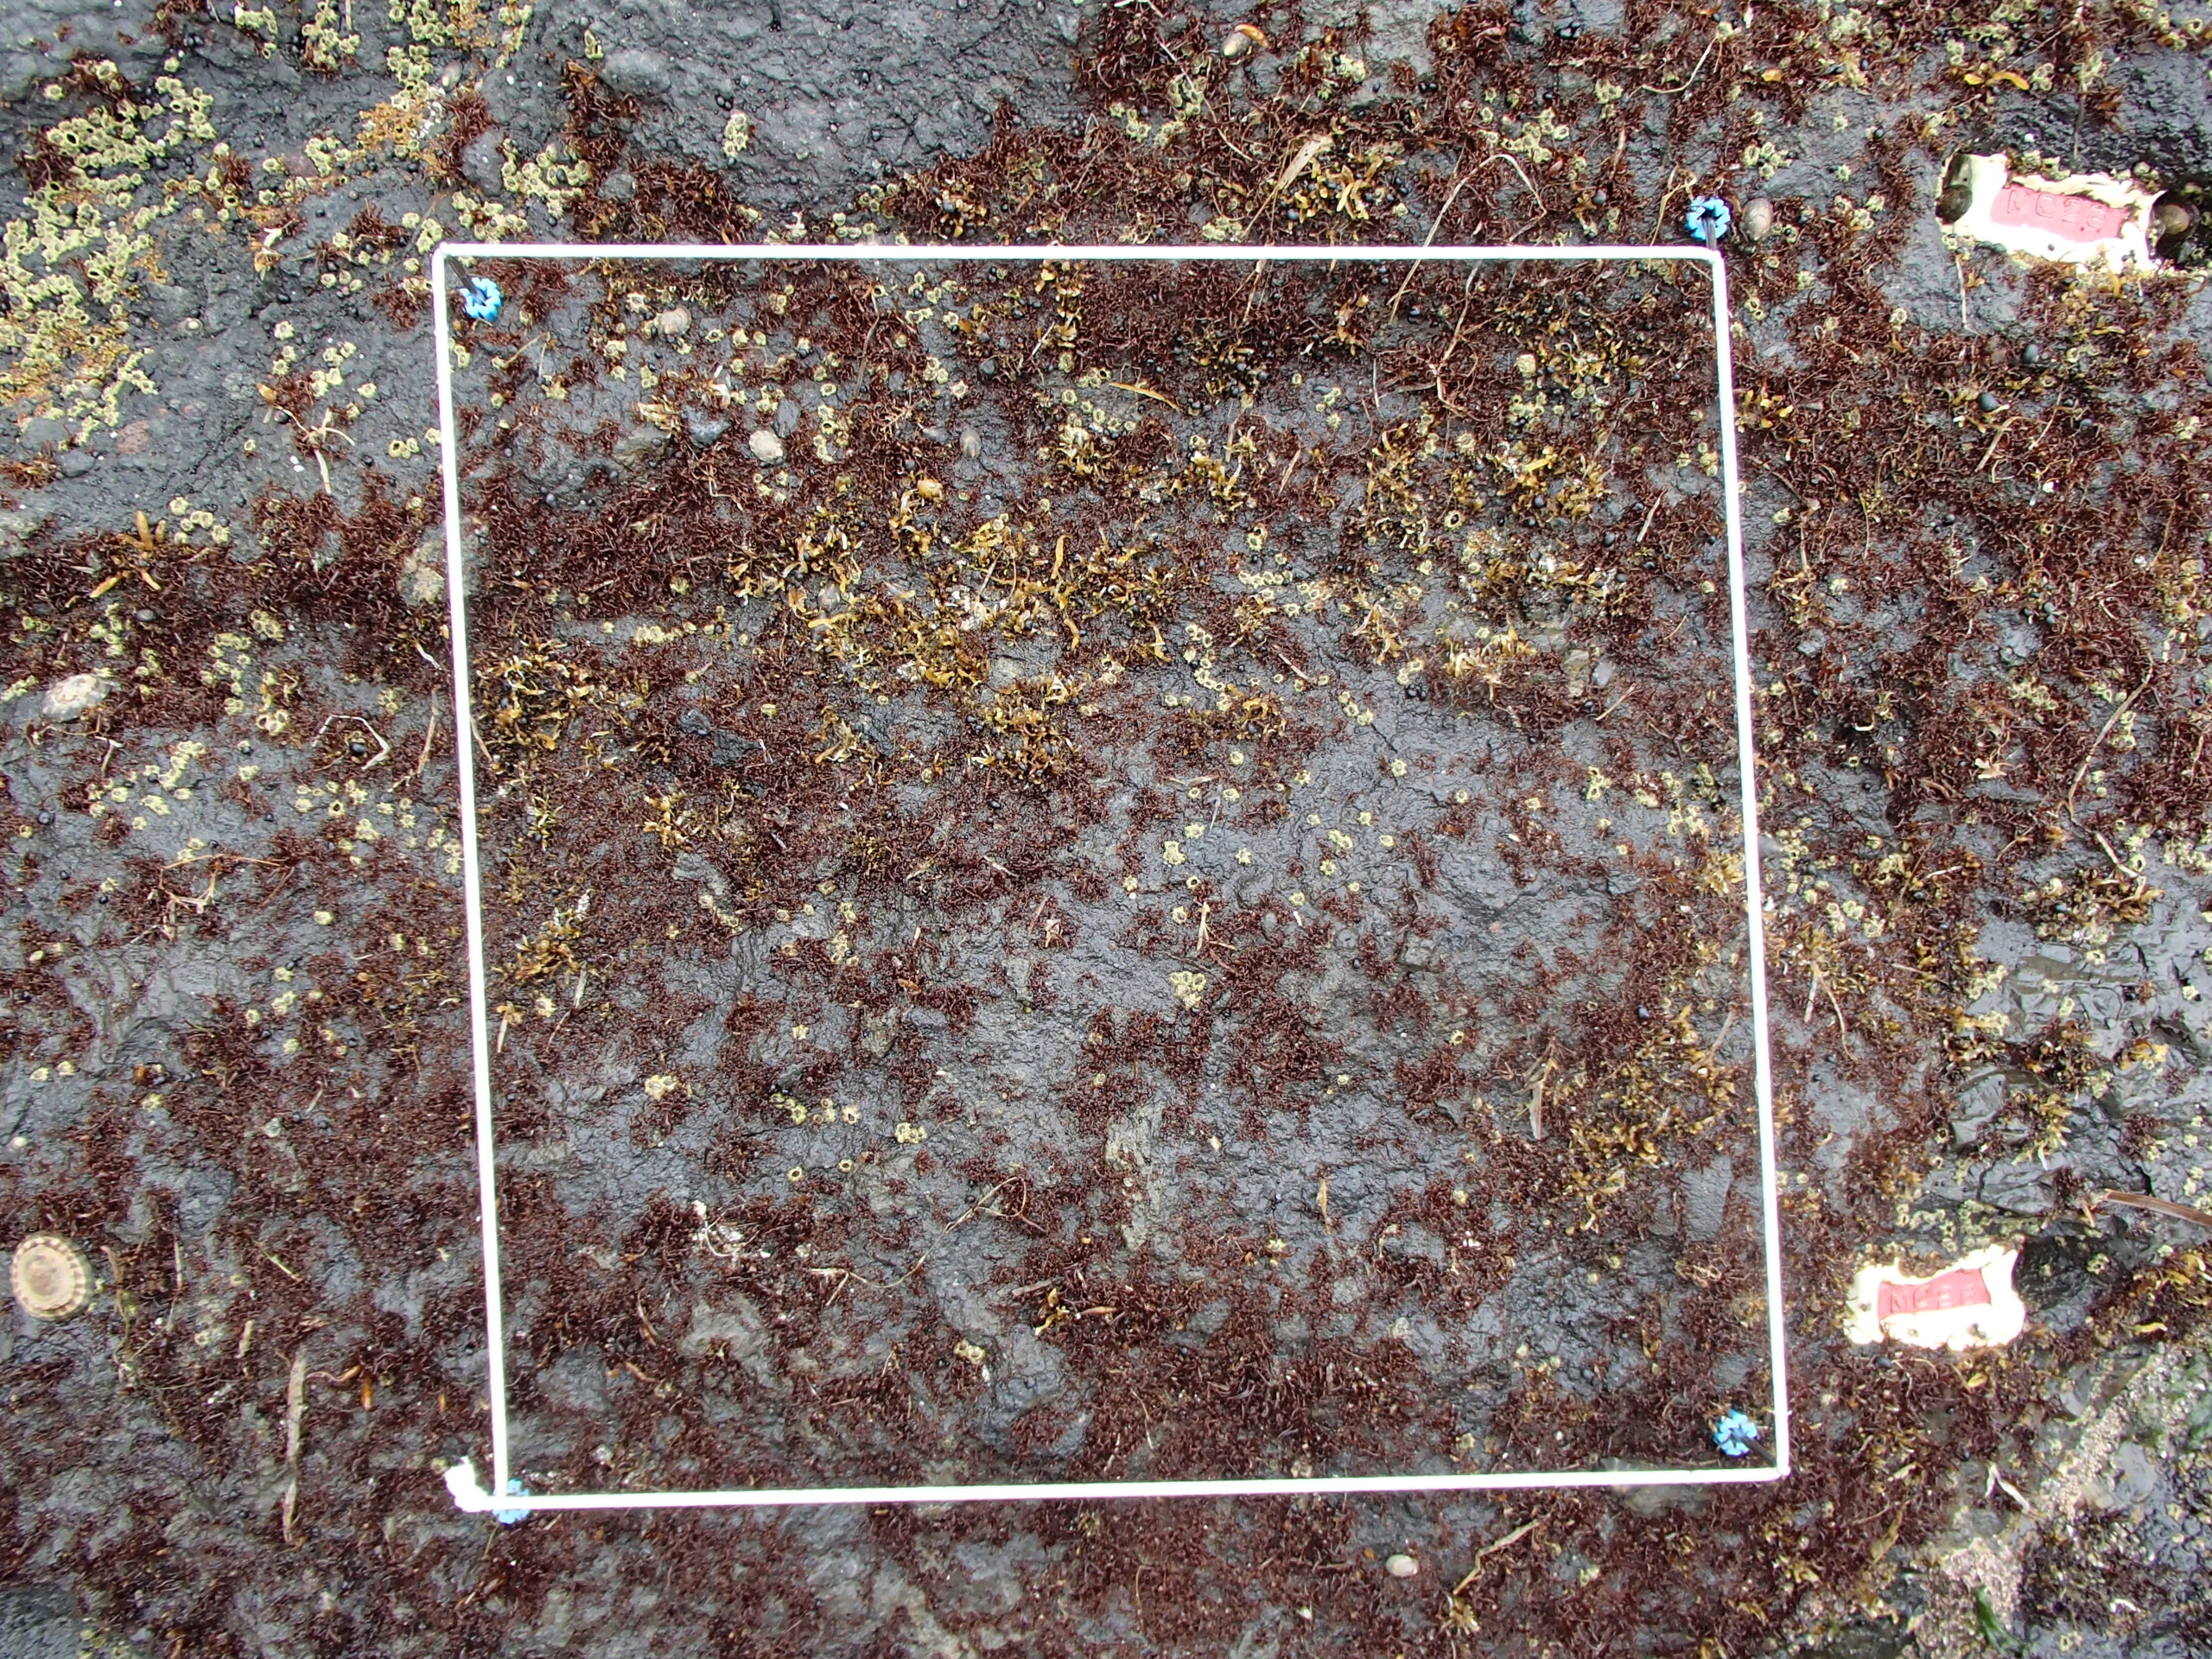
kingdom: Animalia
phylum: Arthropoda
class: Maxillopoda
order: Sessilia
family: Chthamalidae
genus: Chthamalus
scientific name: Chthamalus dalli
